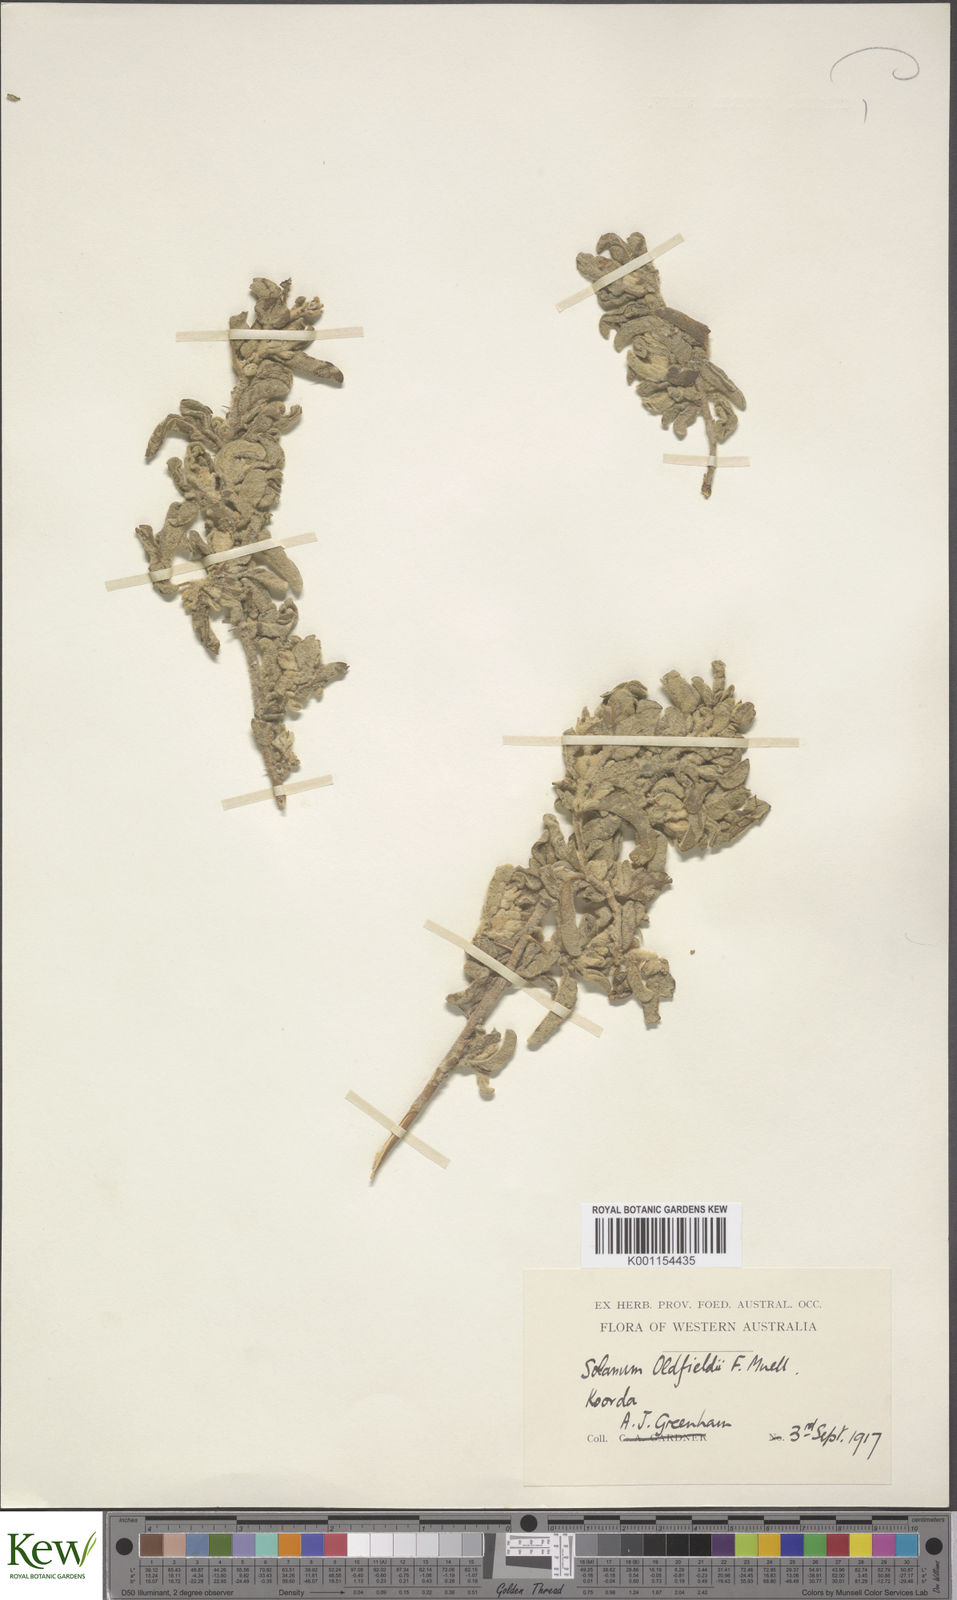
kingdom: Plantae
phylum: Tracheophyta
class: Magnoliopsida
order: Solanales
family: Solanaceae
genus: Solanum
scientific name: Solanum oldfieldii
